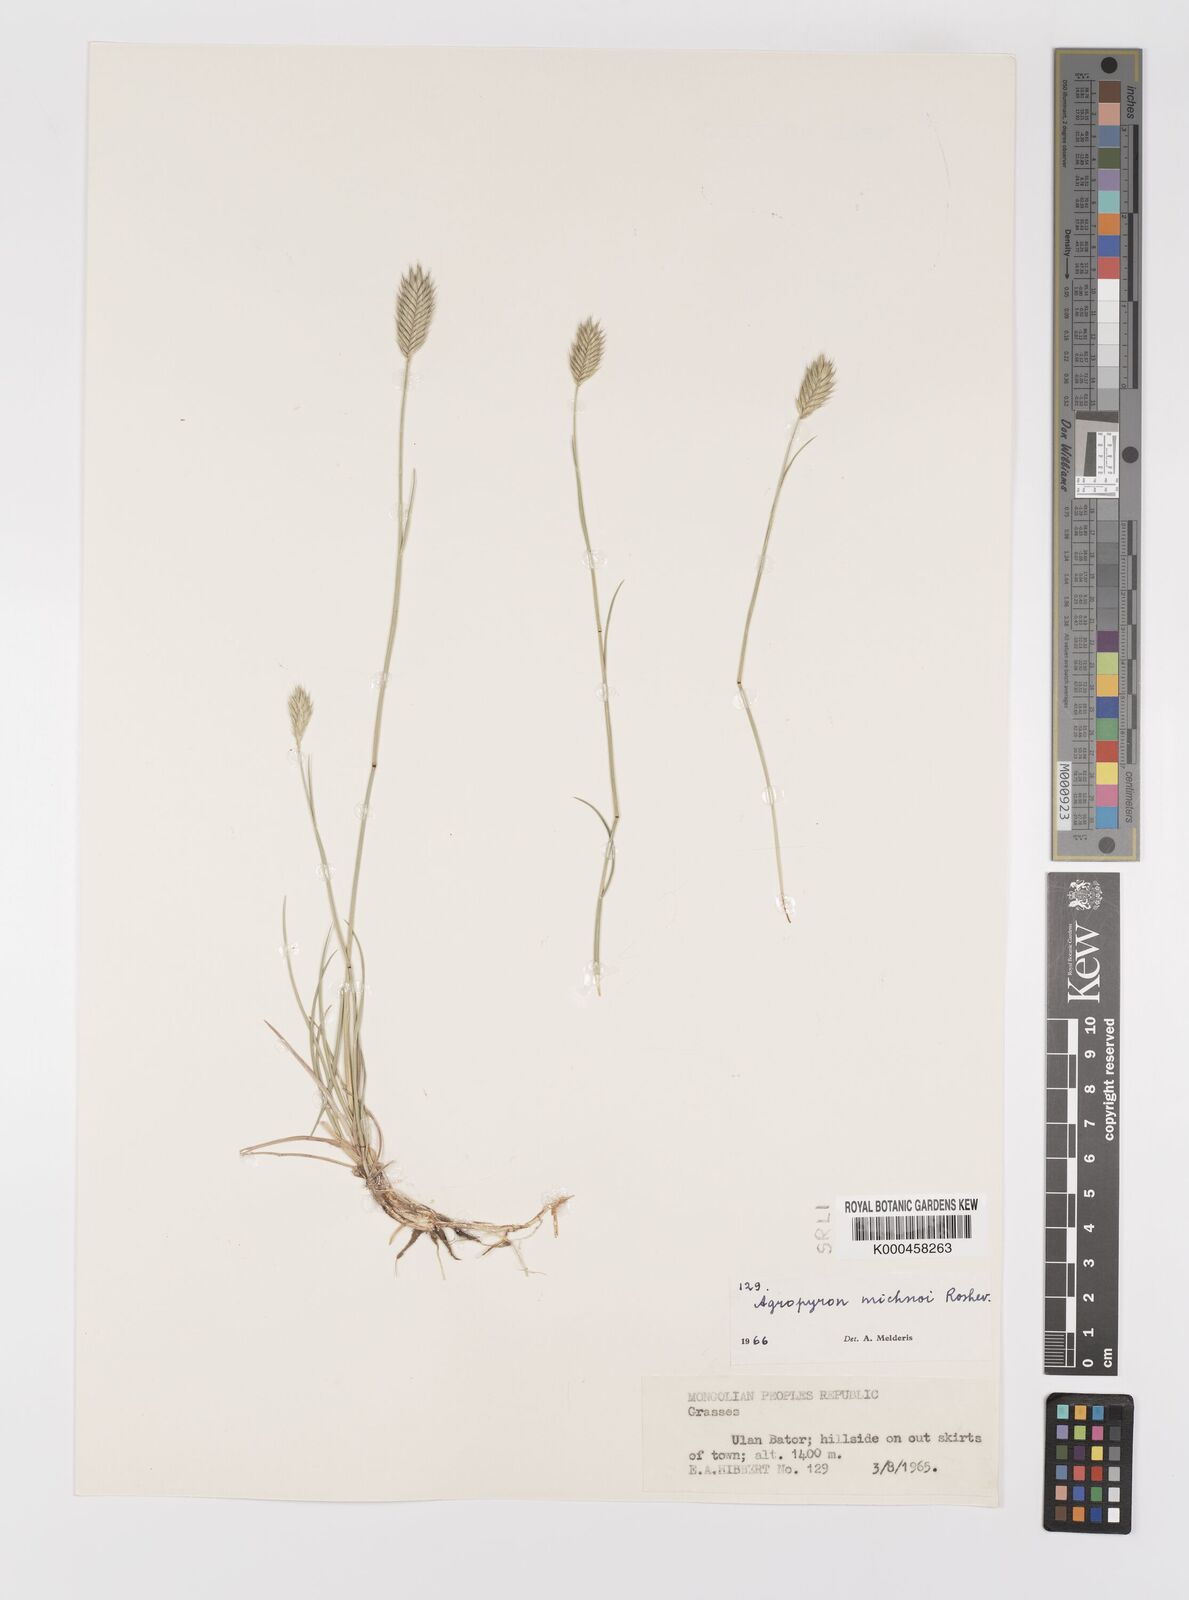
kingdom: Plantae
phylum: Tracheophyta
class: Liliopsida
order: Poales
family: Poaceae
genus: Agropyron
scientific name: Agropyron michnoi
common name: Michno's wheatgrass
